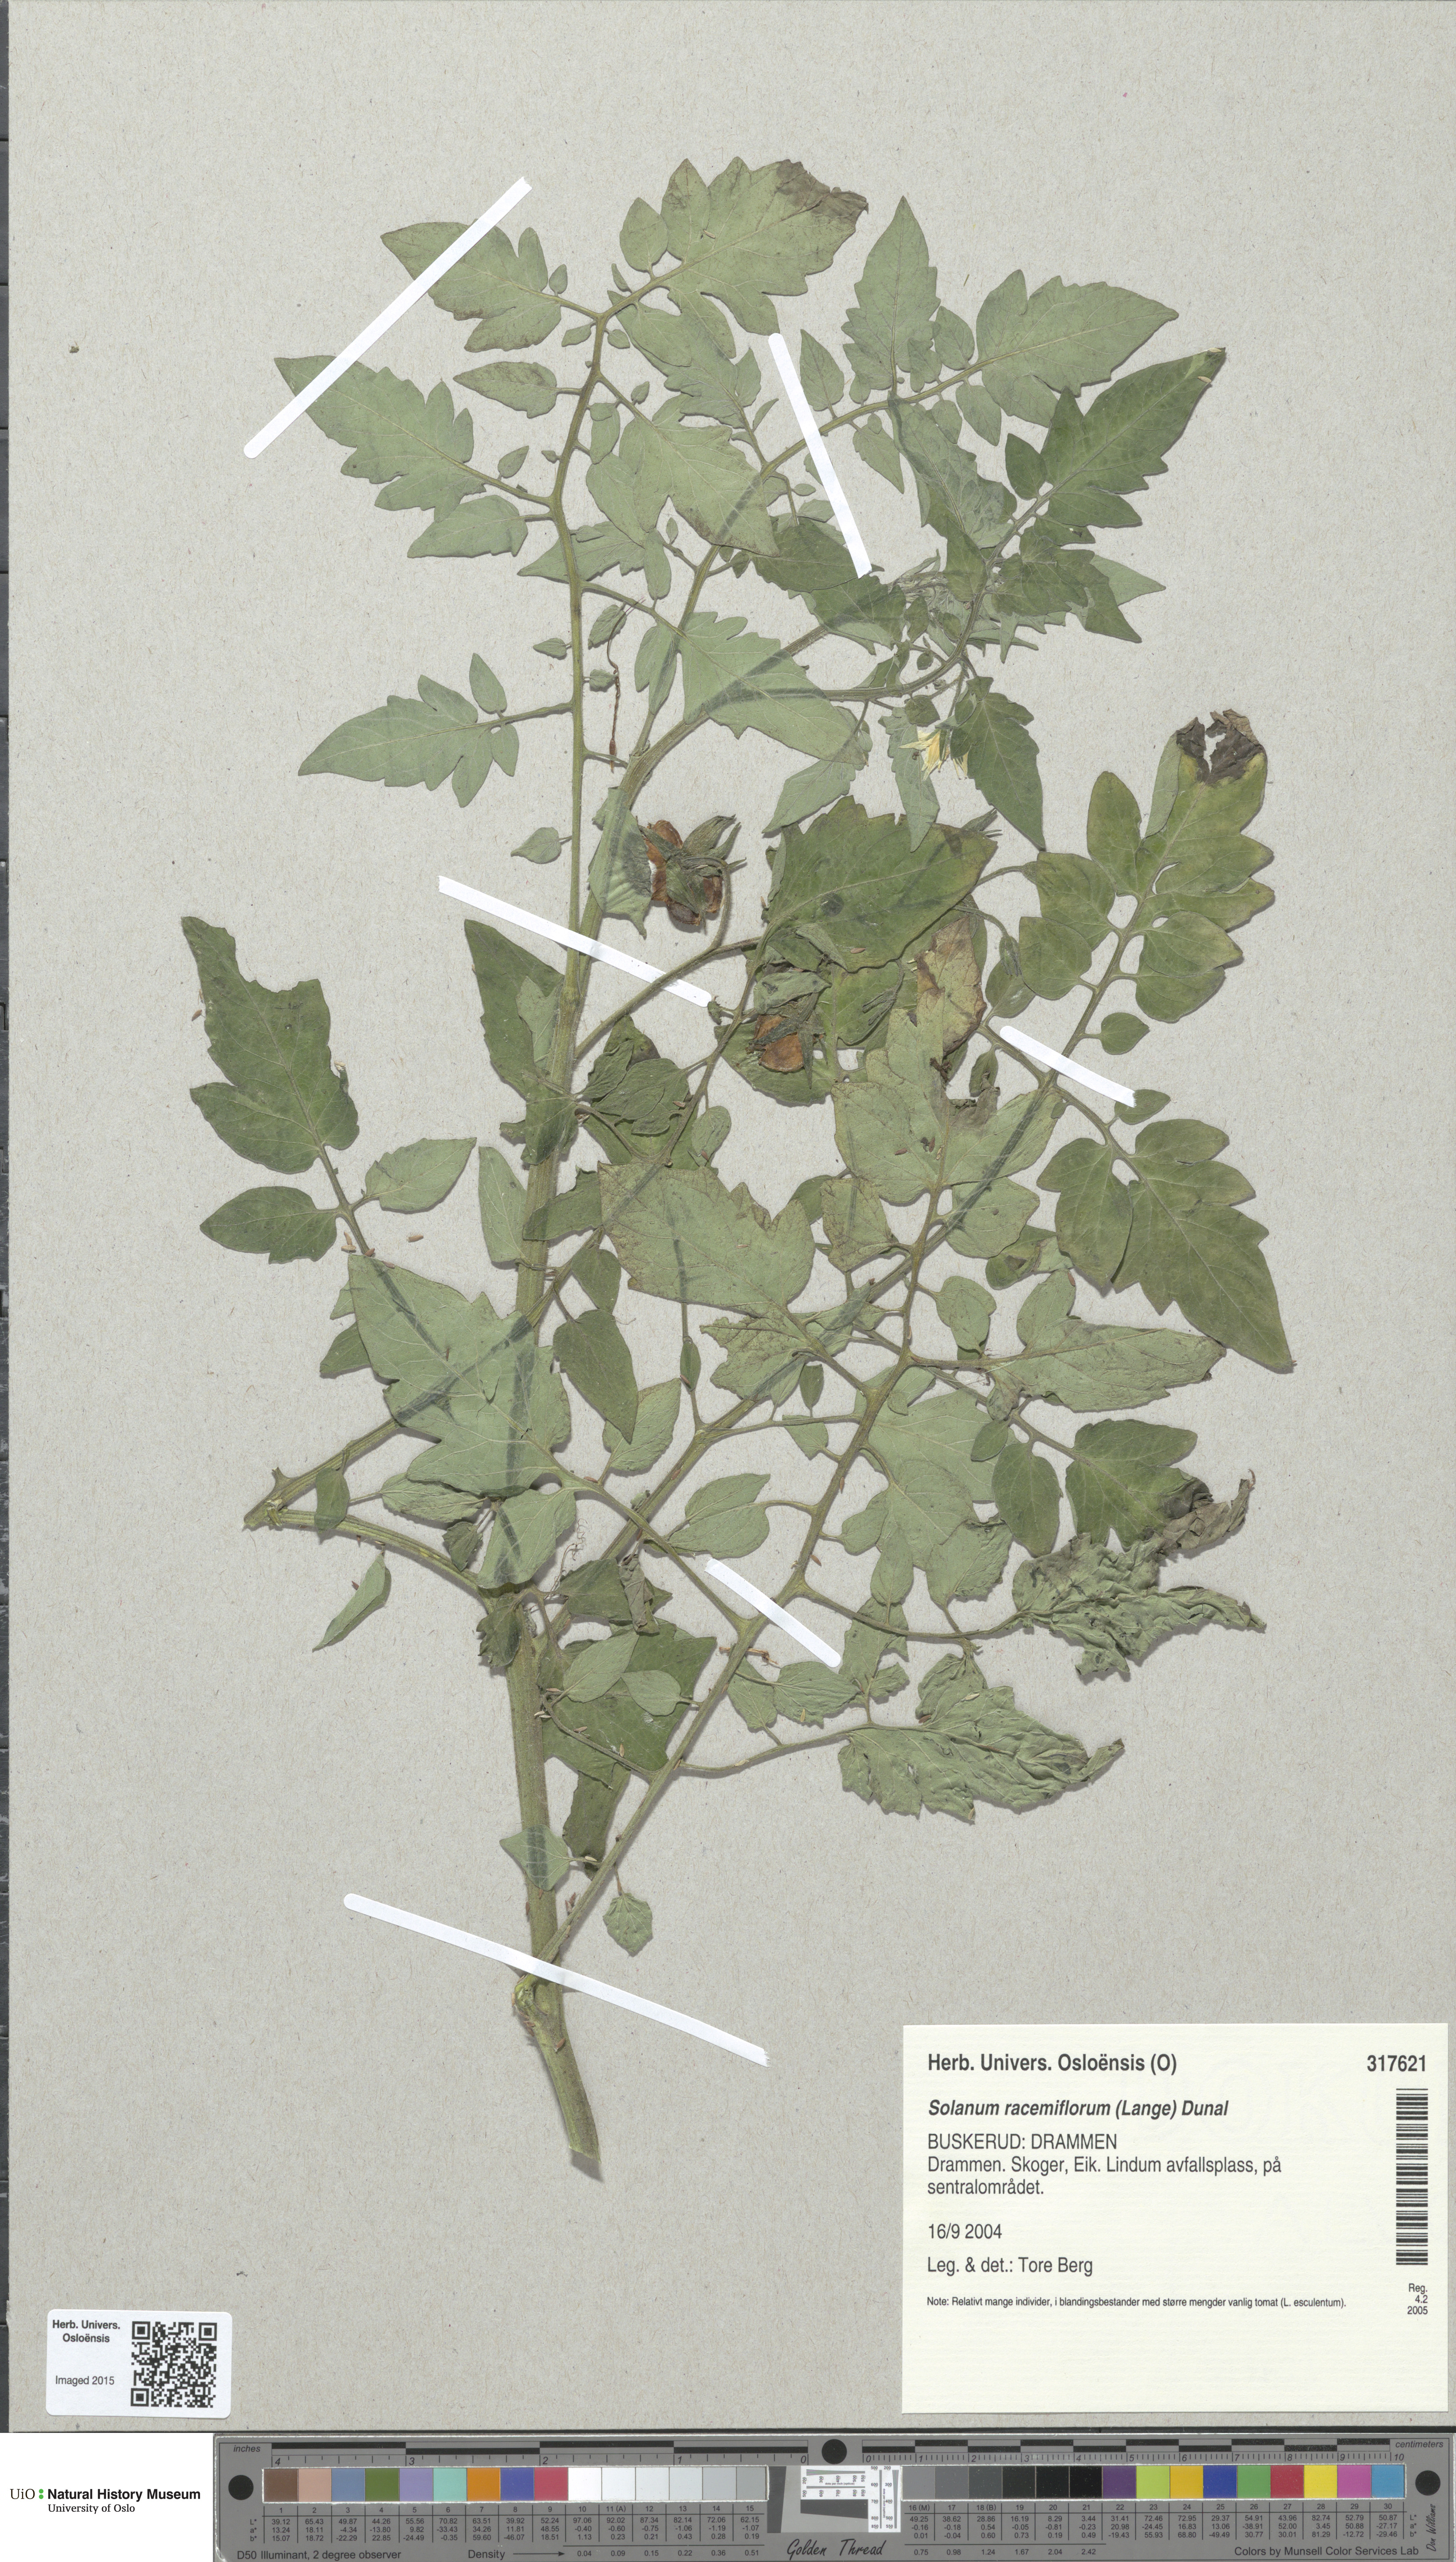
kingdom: Plantae
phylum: Tracheophyta
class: Magnoliopsida
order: Solanales
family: Solanaceae
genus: Solanum
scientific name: Solanum
